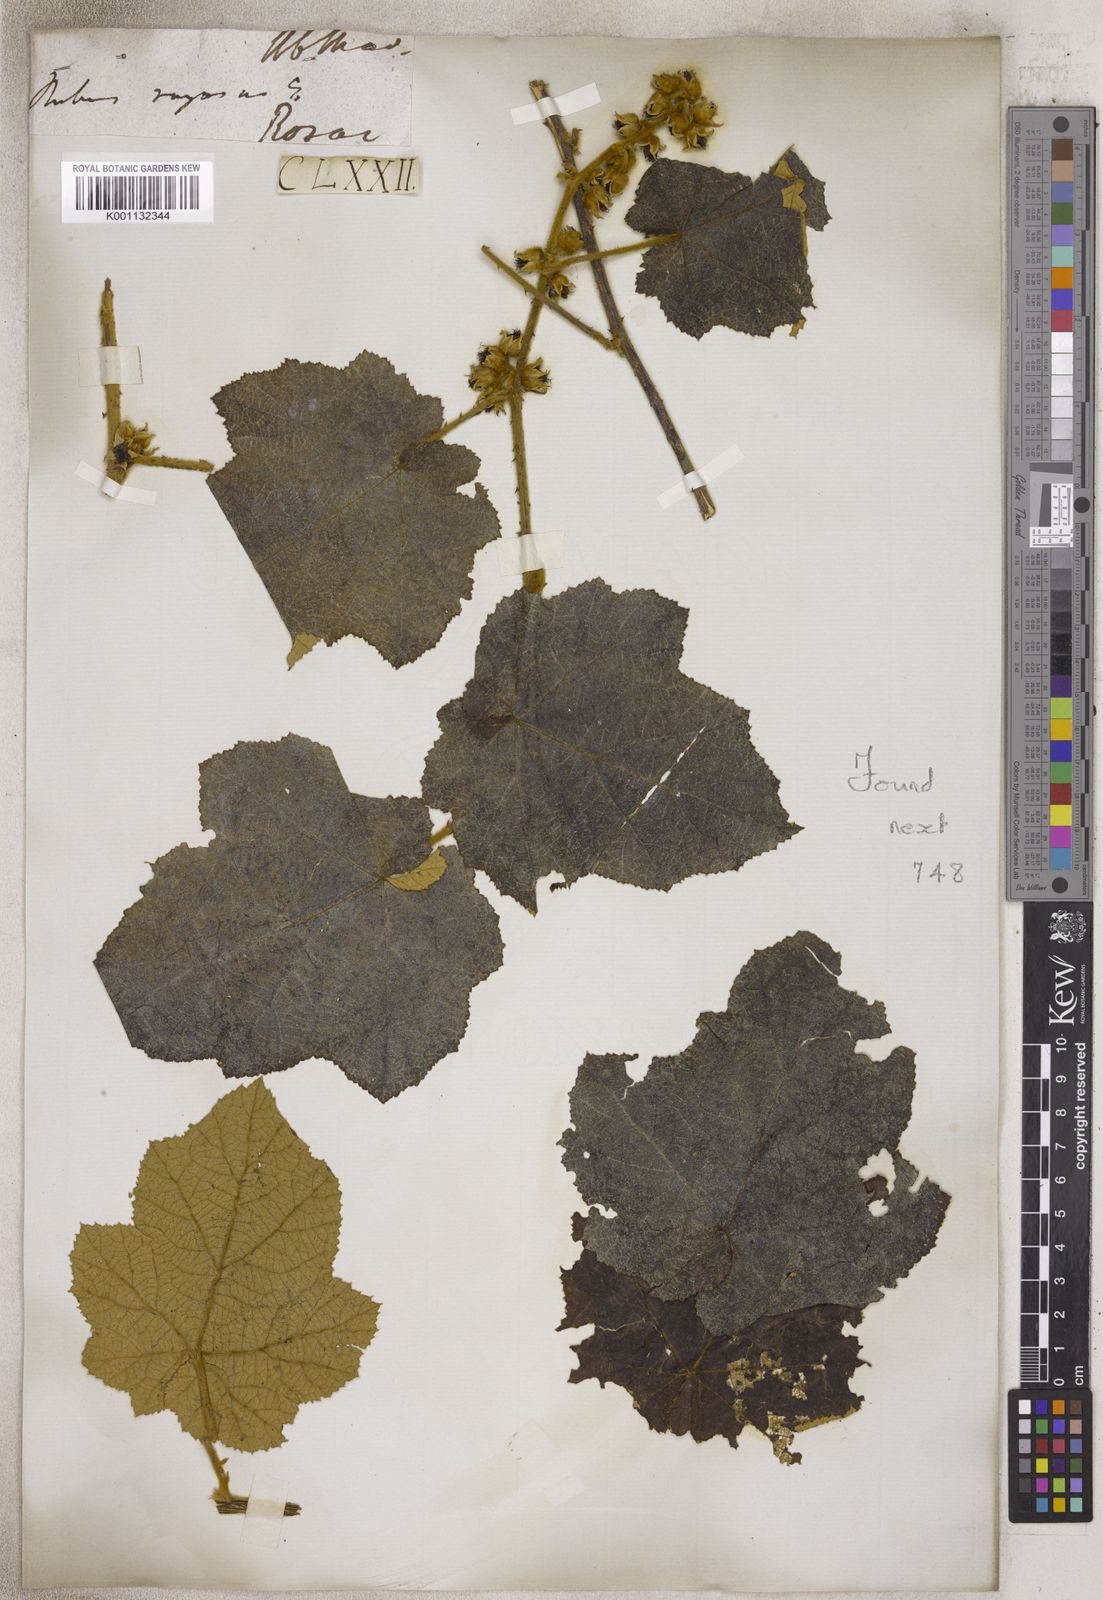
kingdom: Plantae
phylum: Tracheophyta
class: Magnoliopsida
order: Rosales
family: Rosaceae
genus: Rubus
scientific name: Rubus
